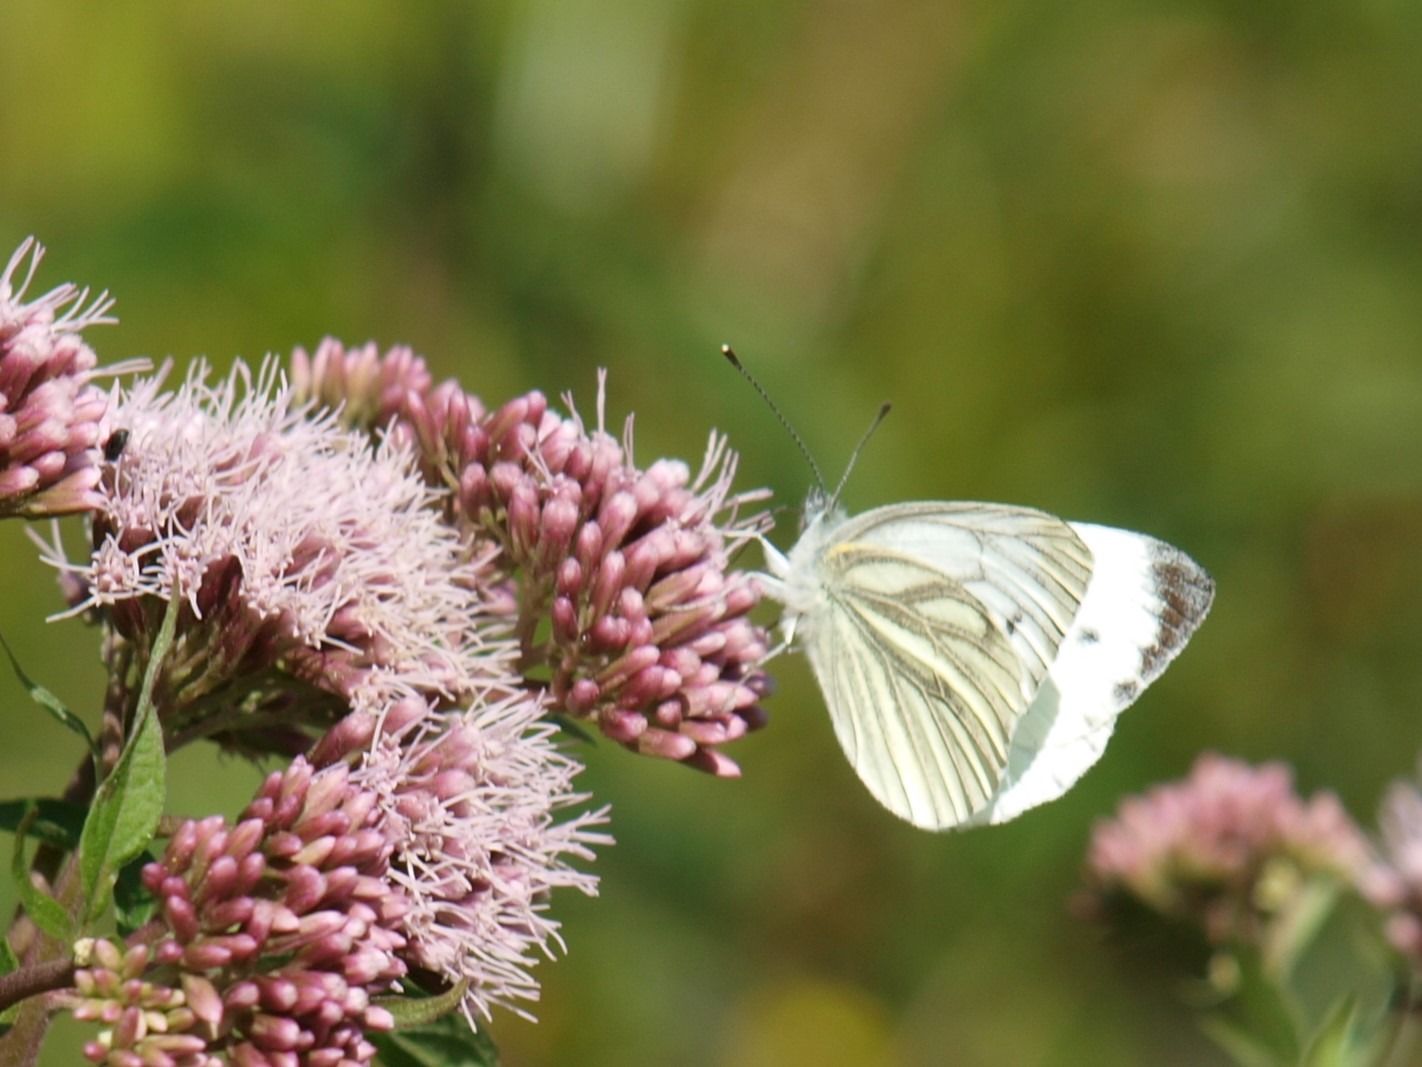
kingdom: Animalia
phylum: Arthropoda
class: Insecta
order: Lepidoptera
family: Pieridae
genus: Pieris
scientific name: Pieris napi
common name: Grønåret kålsommerfugl
